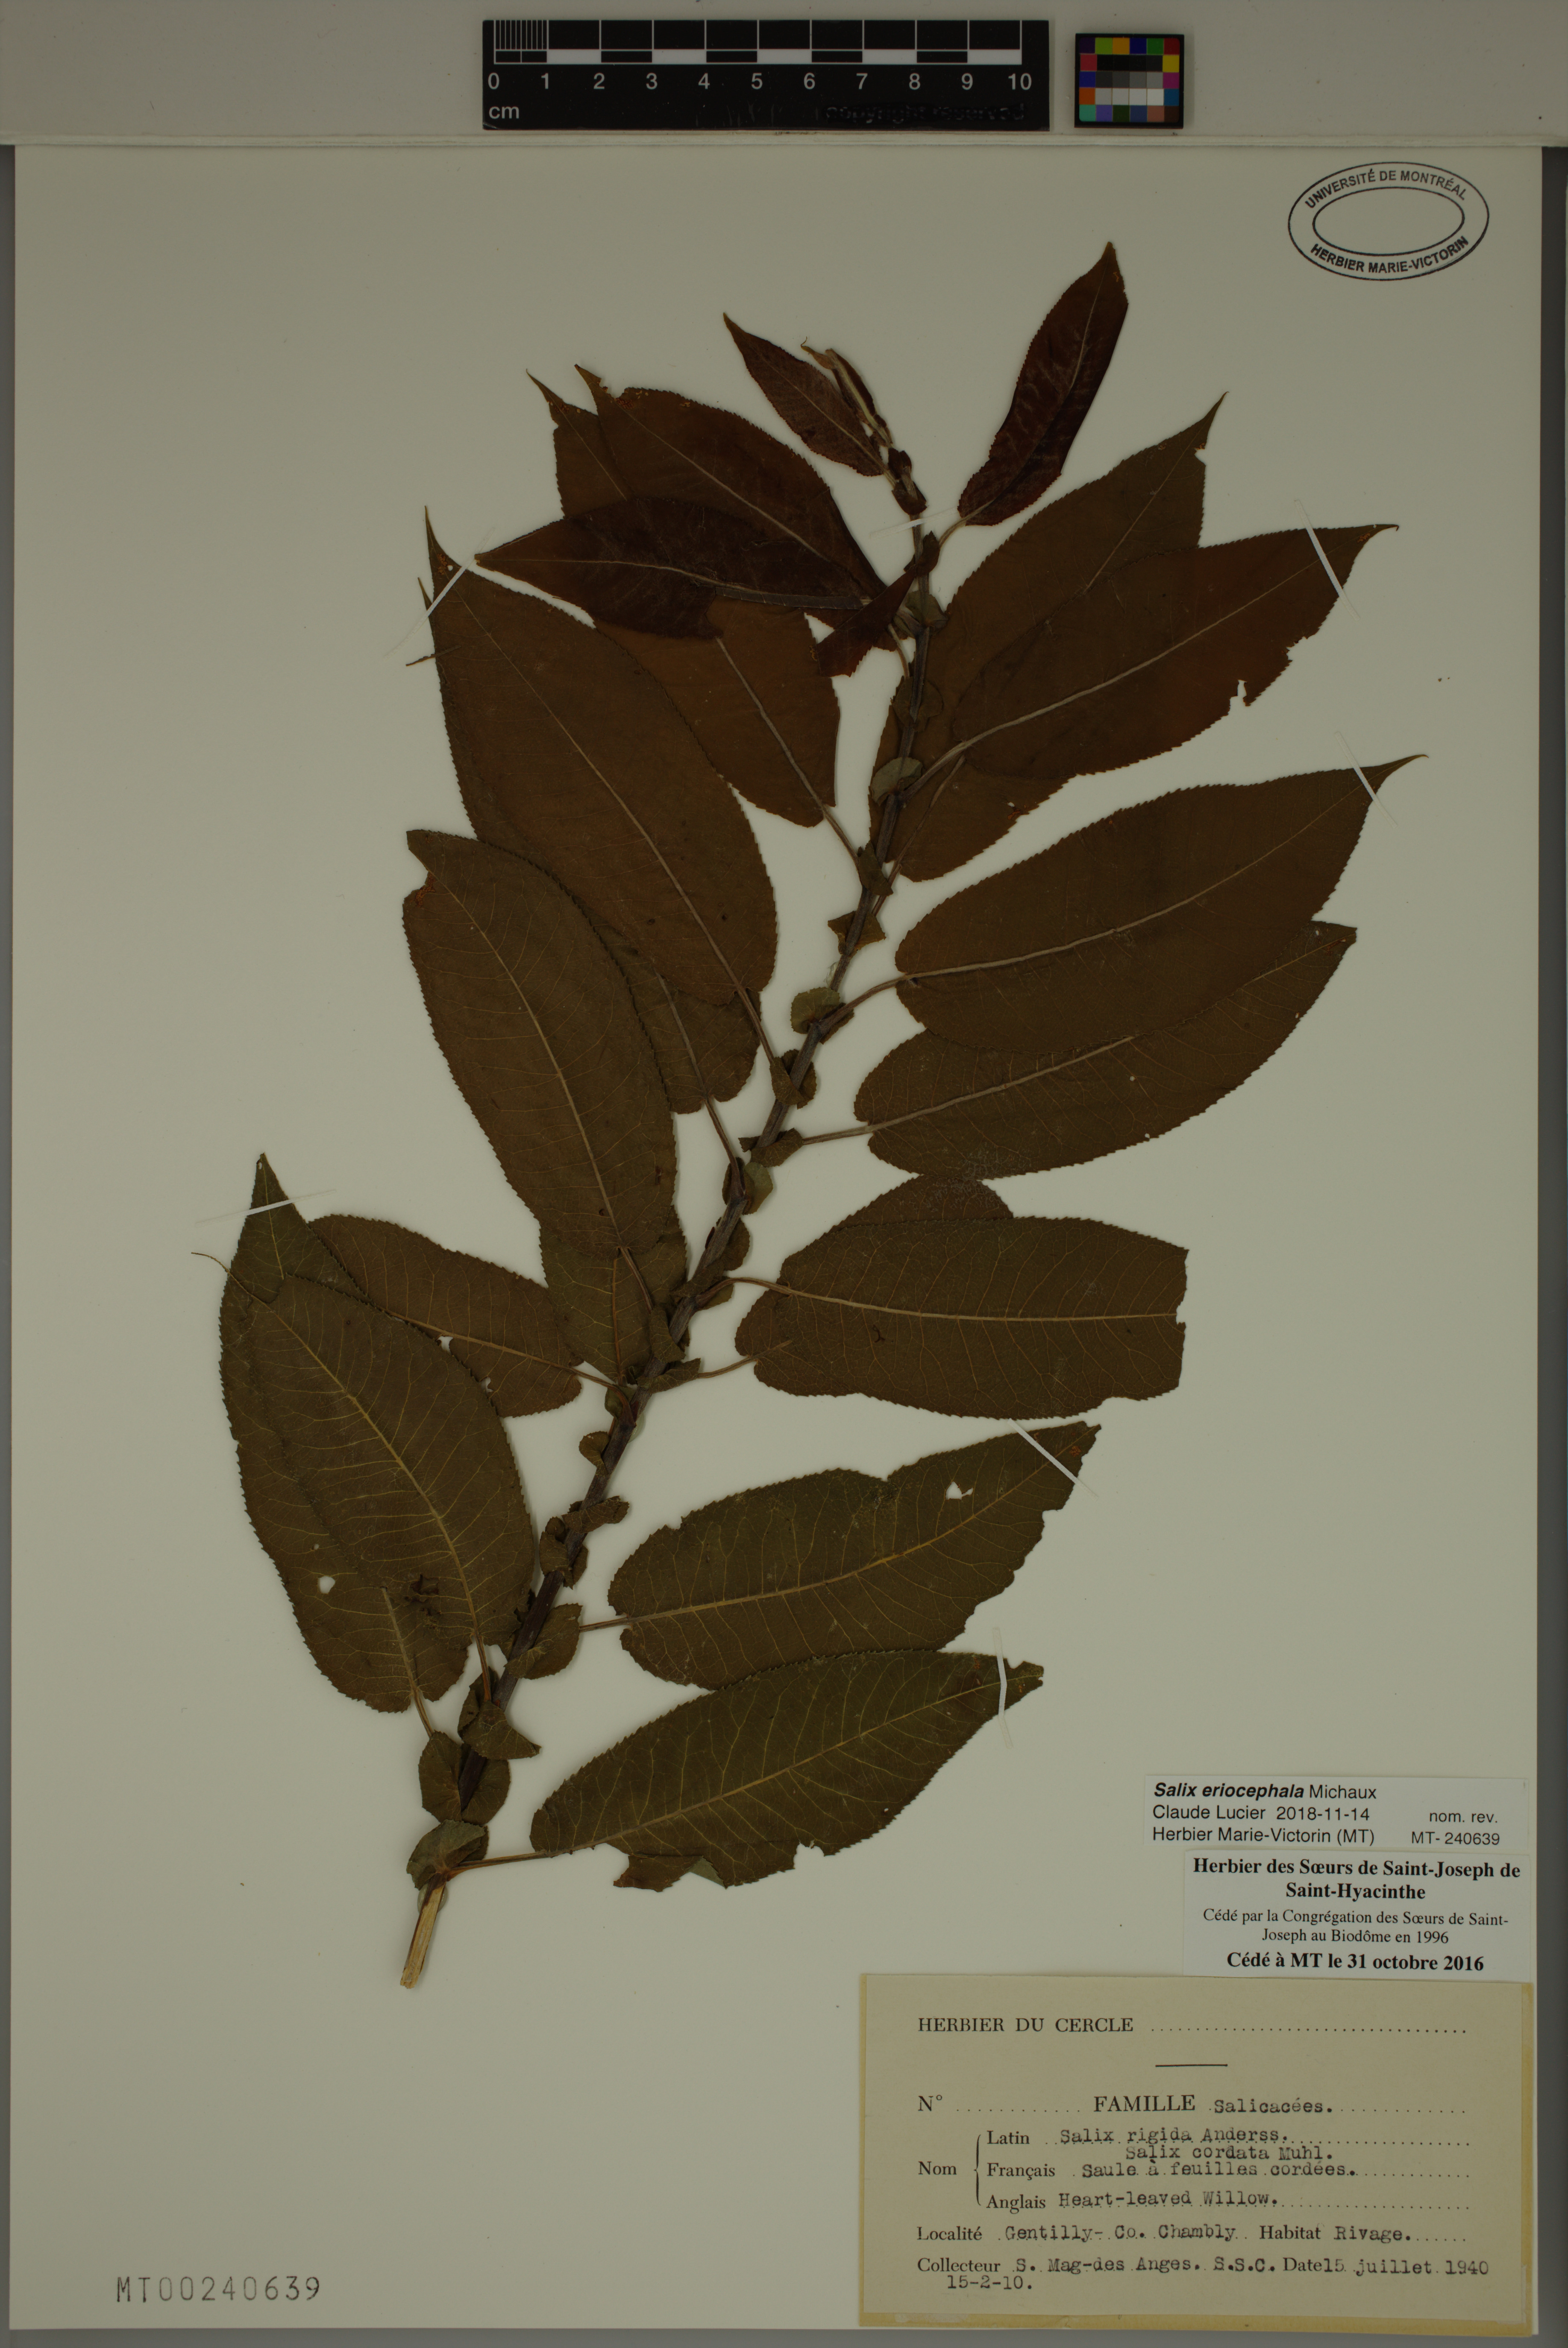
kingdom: Plantae
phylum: Tracheophyta
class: Magnoliopsida
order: Malpighiales
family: Salicaceae
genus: Salix
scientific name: Salix eriocephala
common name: Heart-leaved willow
